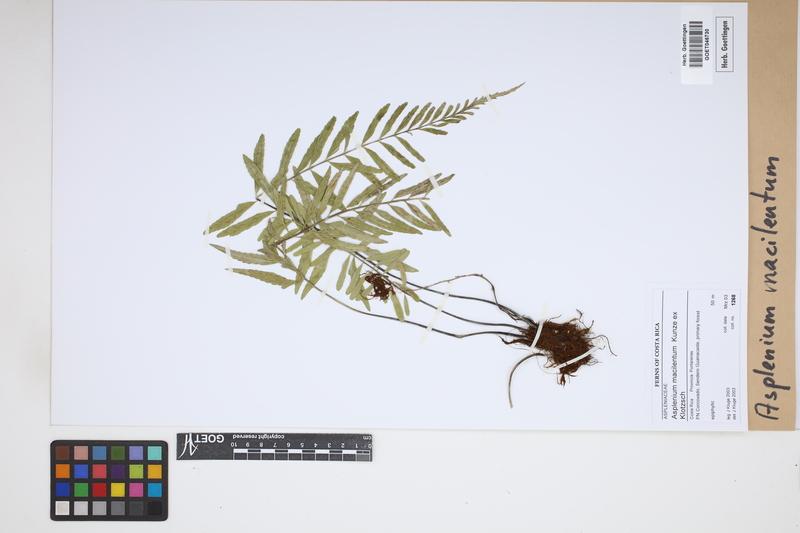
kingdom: Plantae
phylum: Tracheophyta
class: Polypodiopsida
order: Polypodiales
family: Aspleniaceae
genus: Asplenium
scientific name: Asplenium auritum
